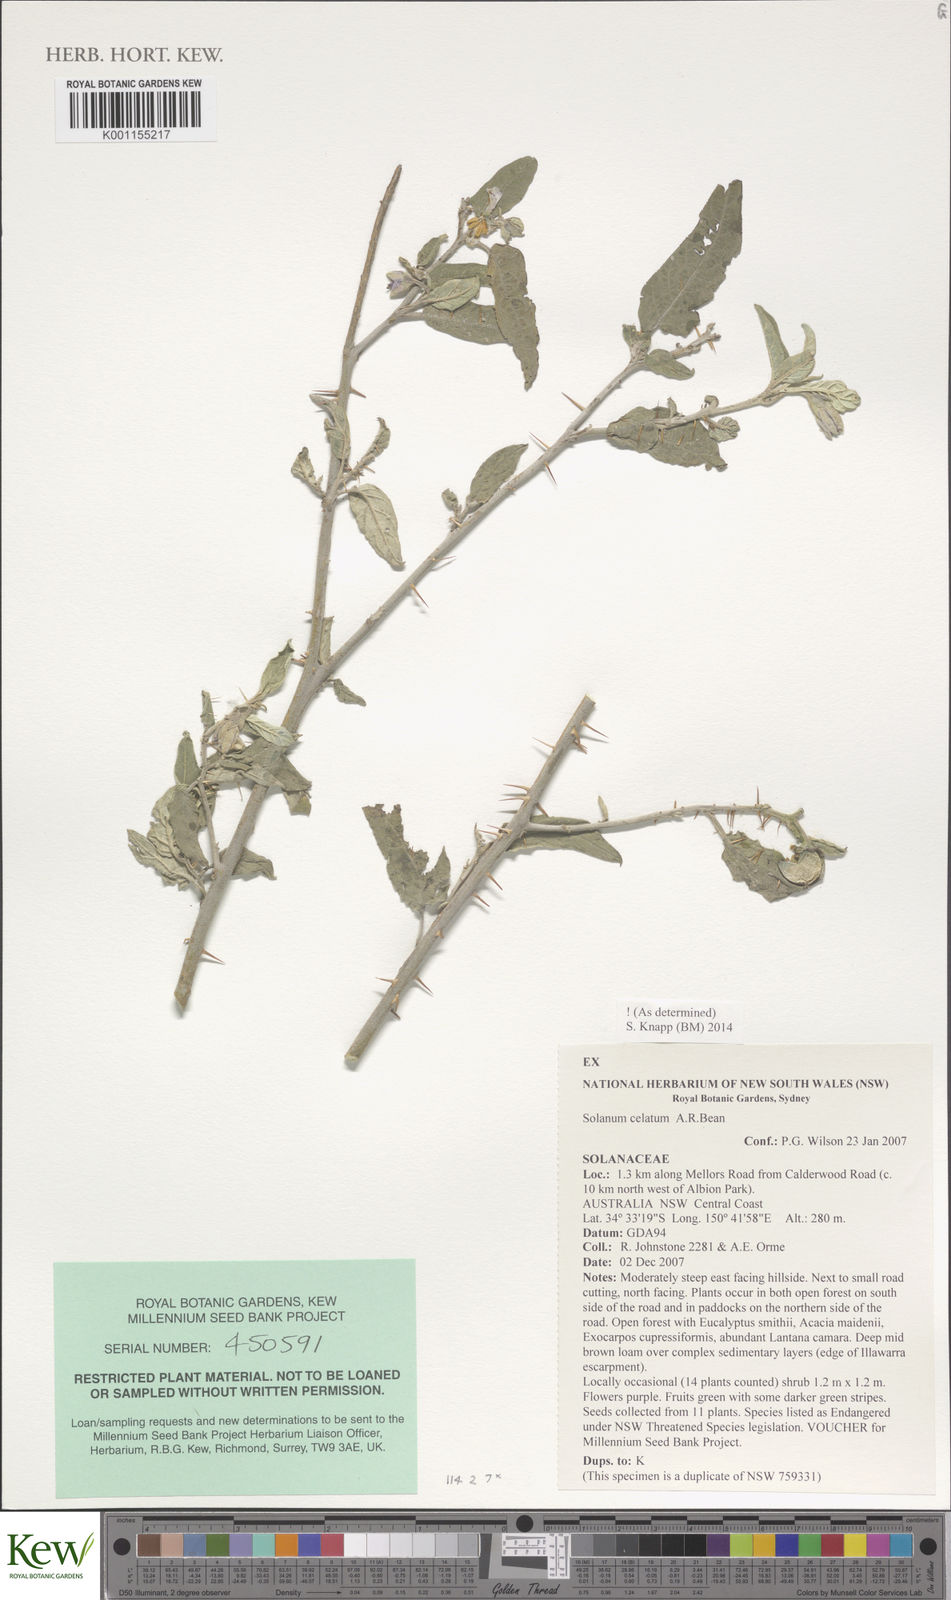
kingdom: Plantae
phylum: Tracheophyta
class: Magnoliopsida
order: Solanales
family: Solanaceae
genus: Solanum
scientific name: Solanum celatum
